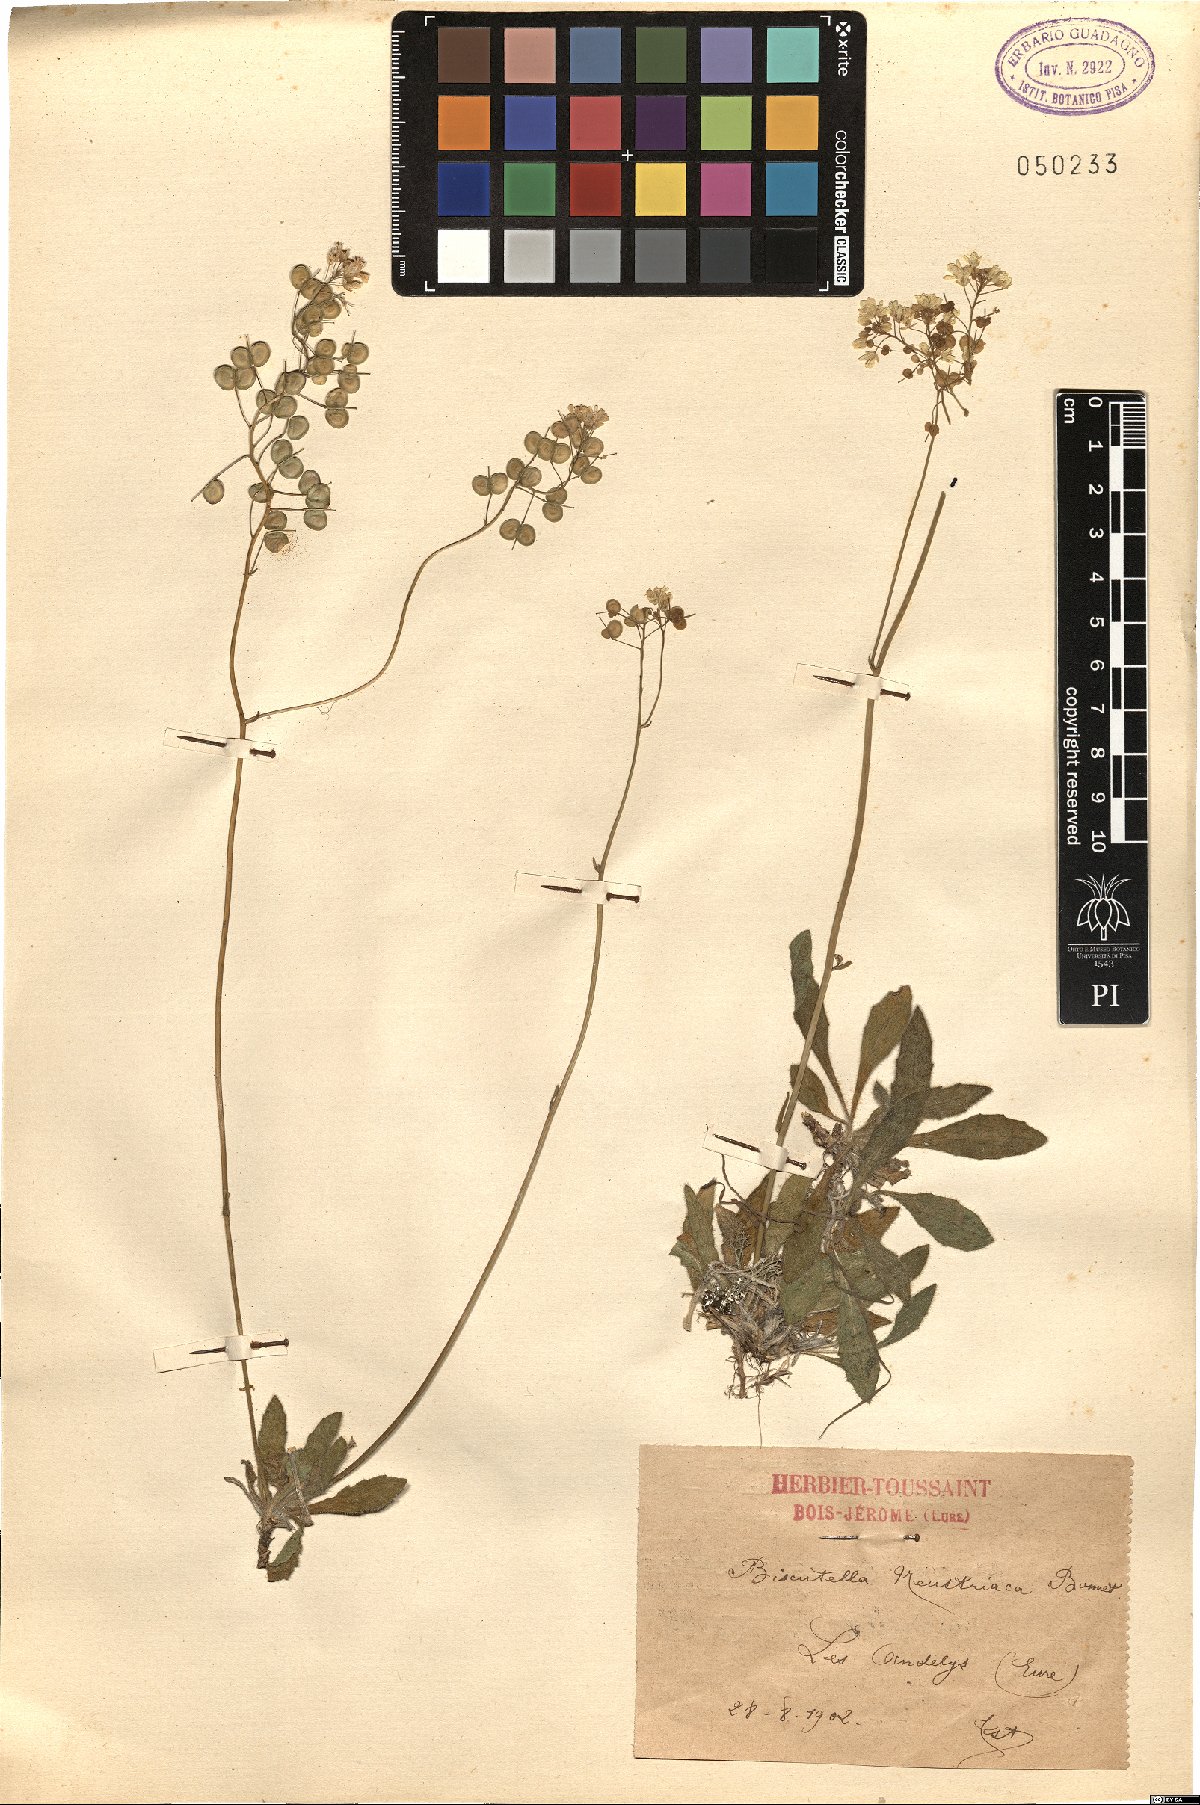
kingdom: Plantae
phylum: Tracheophyta
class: Magnoliopsida
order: Brassicales
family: Brassicaceae
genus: Biscutella
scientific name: Biscutella neustriaca
